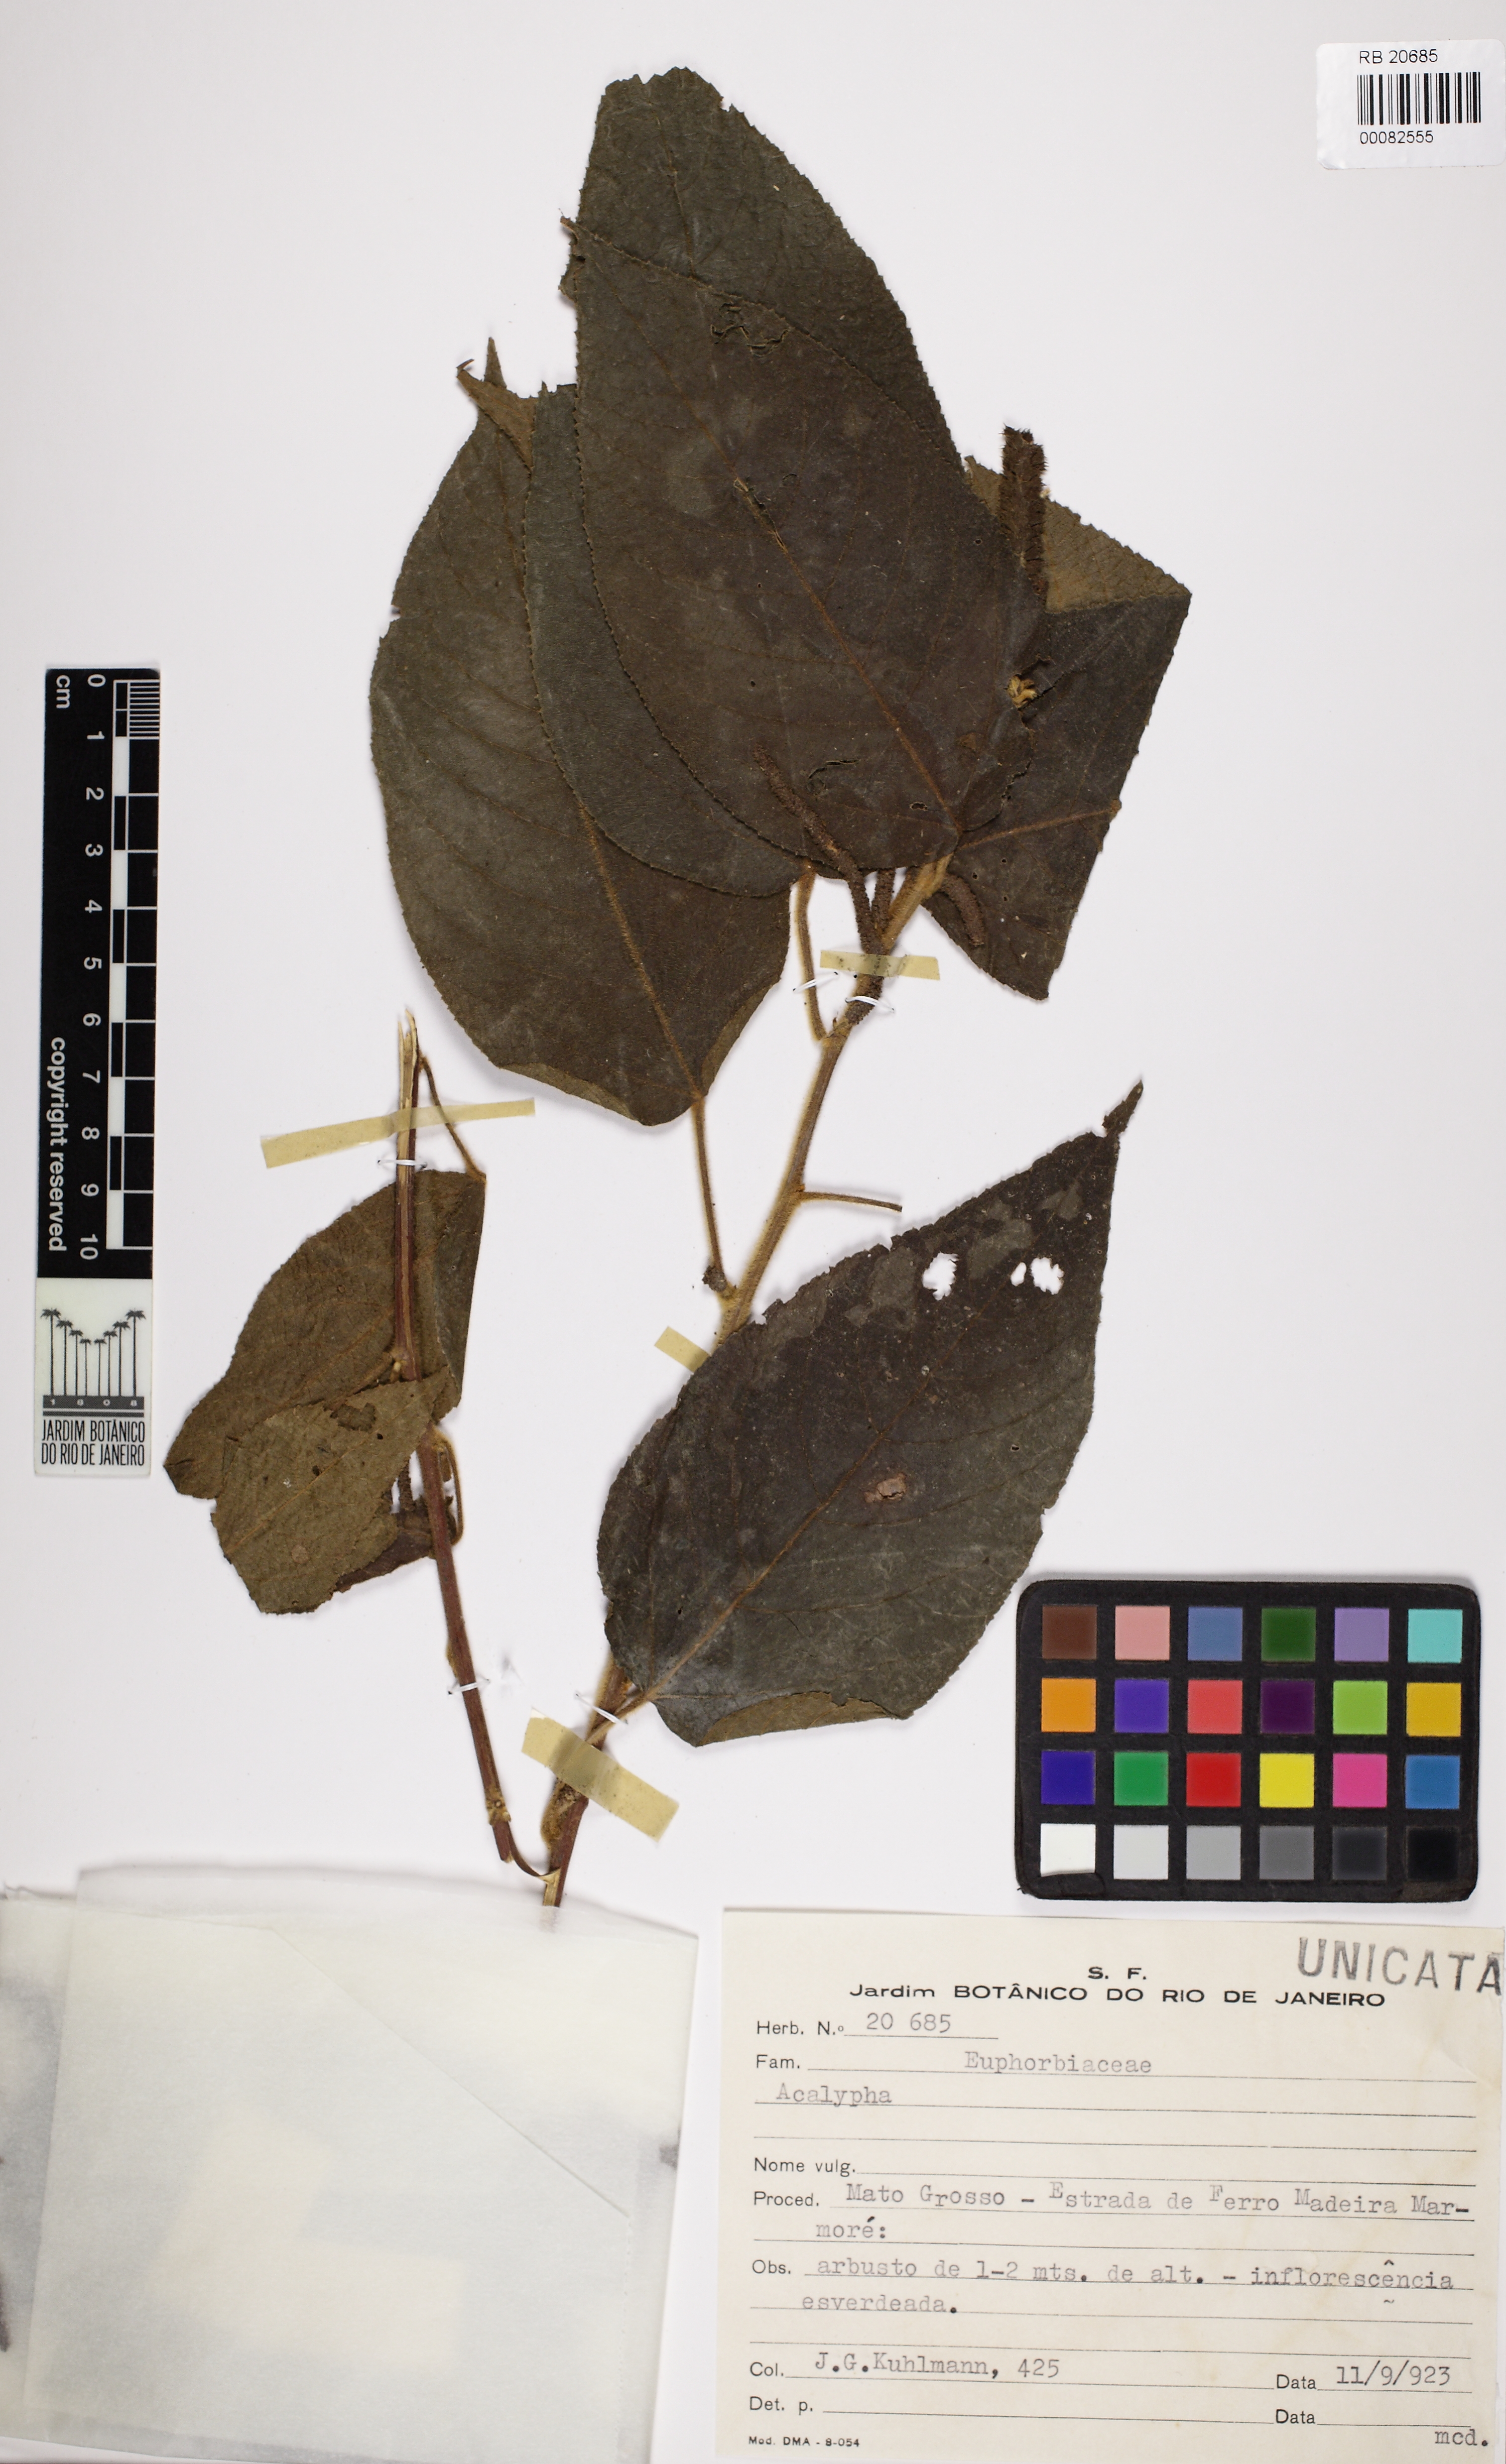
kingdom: Plantae
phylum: Tracheophyta
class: Magnoliopsida
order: Malpighiales
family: Euphorbiaceae
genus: Acalypha
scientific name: Acalypha communis
